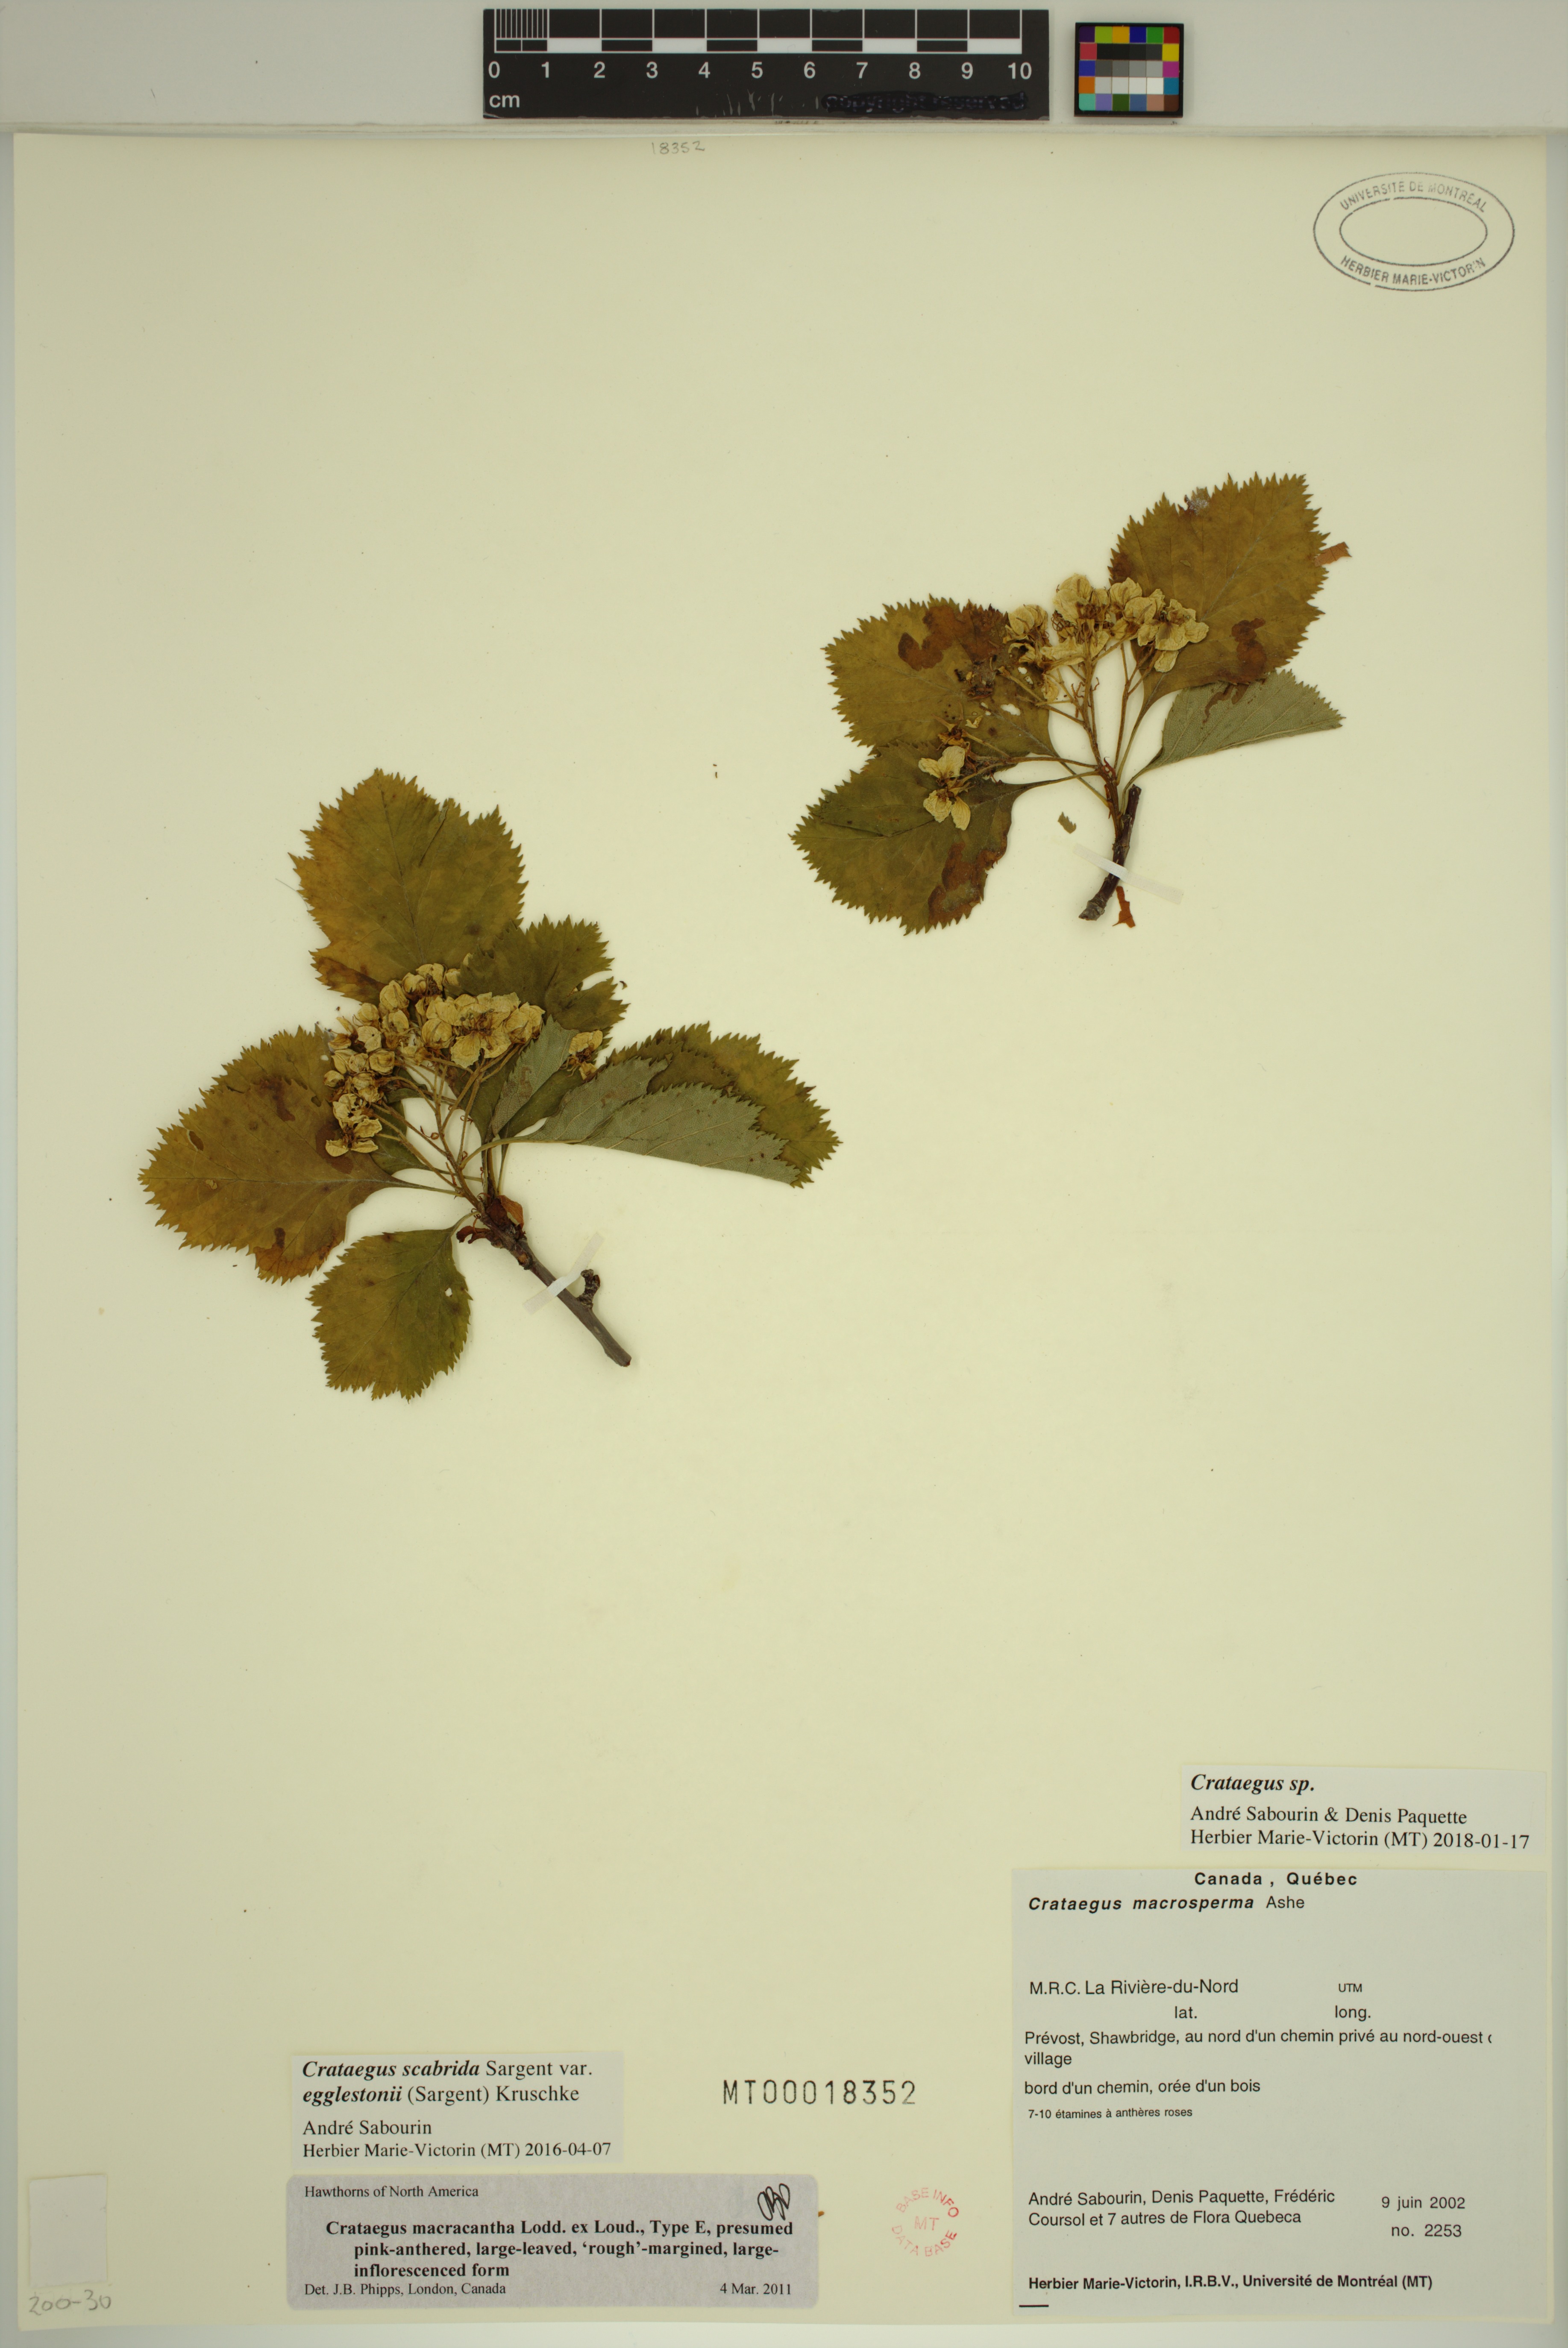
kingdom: Plantae
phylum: Tracheophyta
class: Magnoliopsida
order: Rosales
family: Rosaceae
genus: Crataegus
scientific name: Crataegus macracantha
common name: Large-thorn hawthorn
